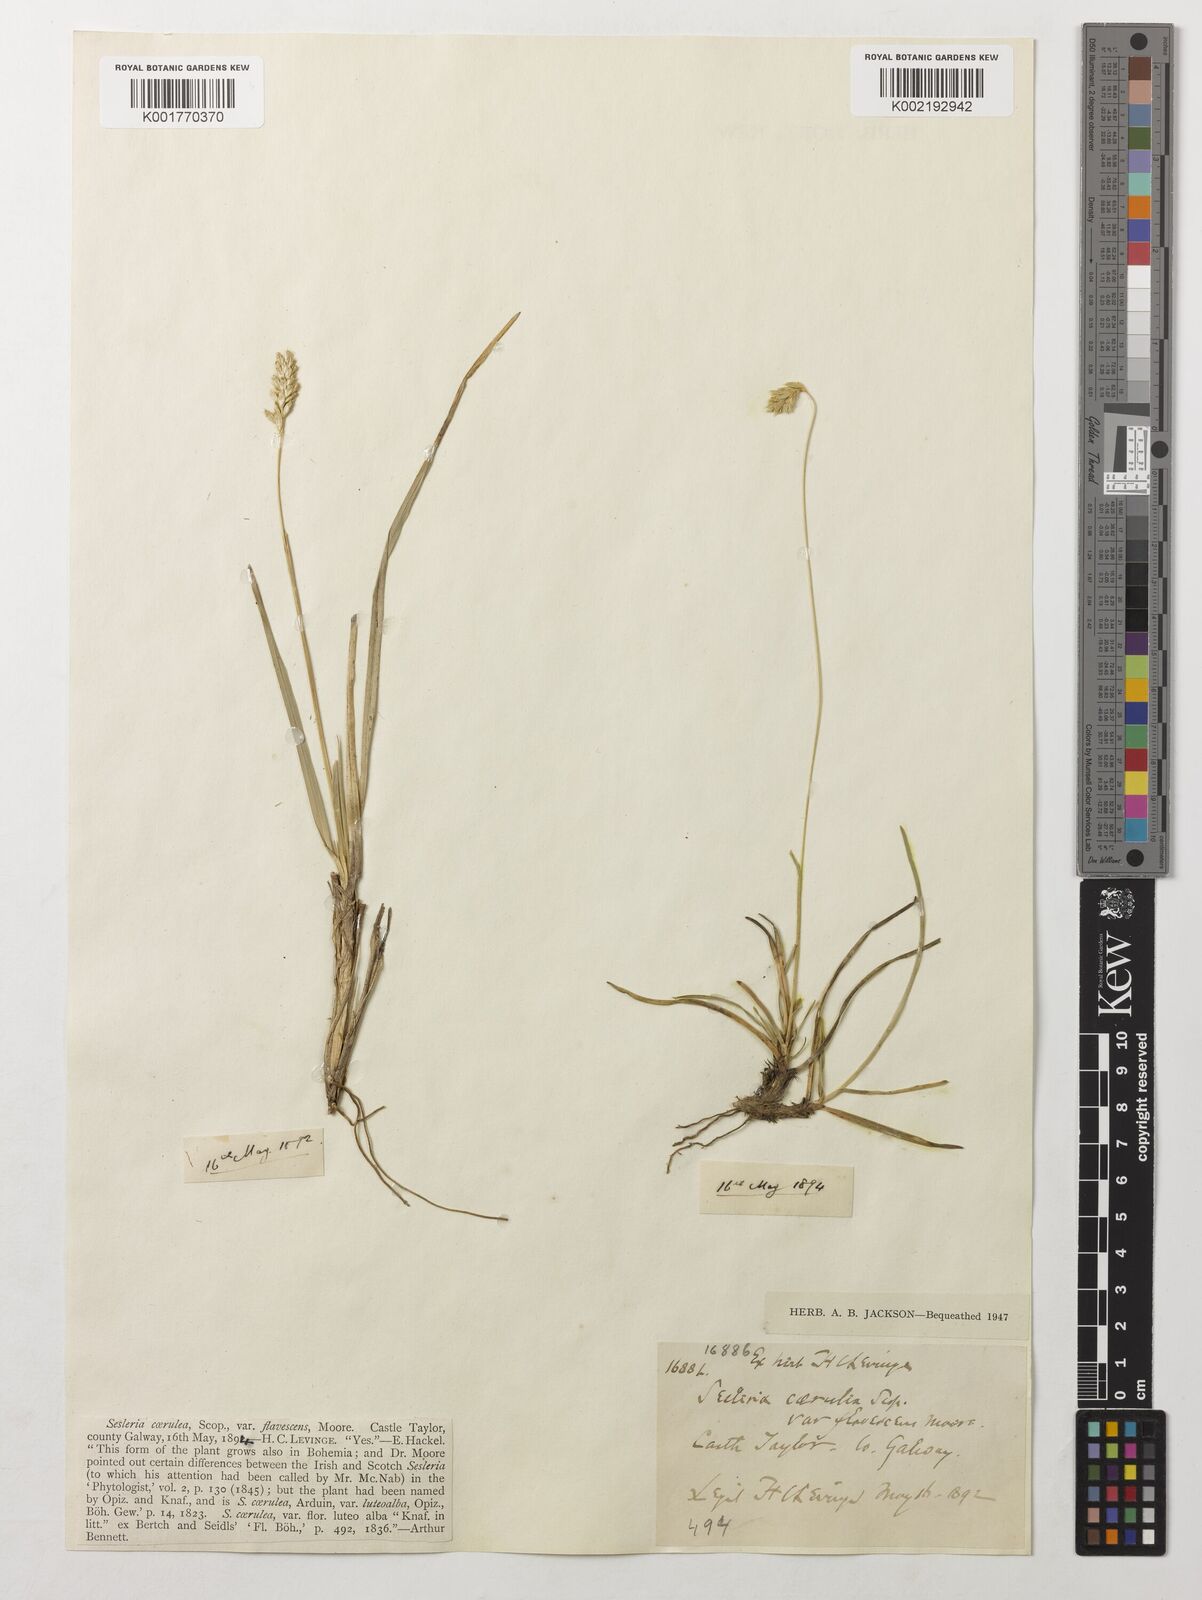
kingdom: Plantae
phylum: Tracheophyta
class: Liliopsida
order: Poales
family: Poaceae
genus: Sesleria
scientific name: Sesleria caerulea
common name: Blue moor-grass
